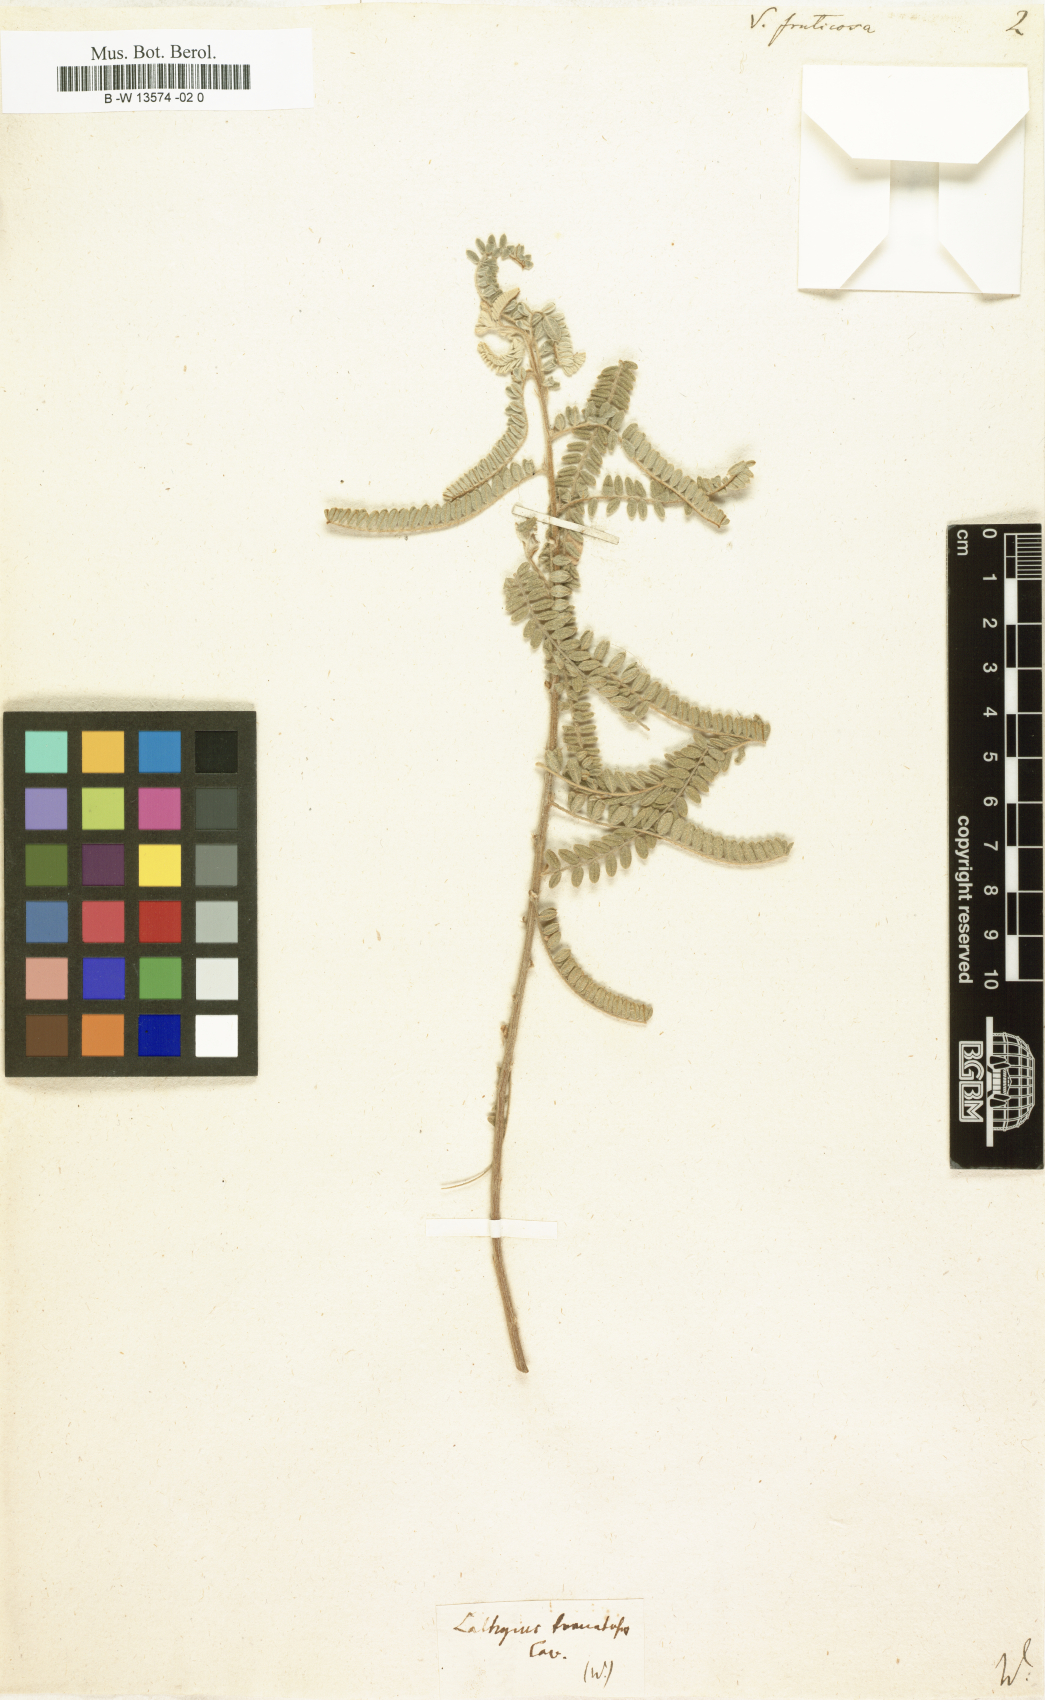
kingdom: Plantae
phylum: Tracheophyta
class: Magnoliopsida
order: Fabales
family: Fabaceae
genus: Coursetia
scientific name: Coursetia fruticosa
